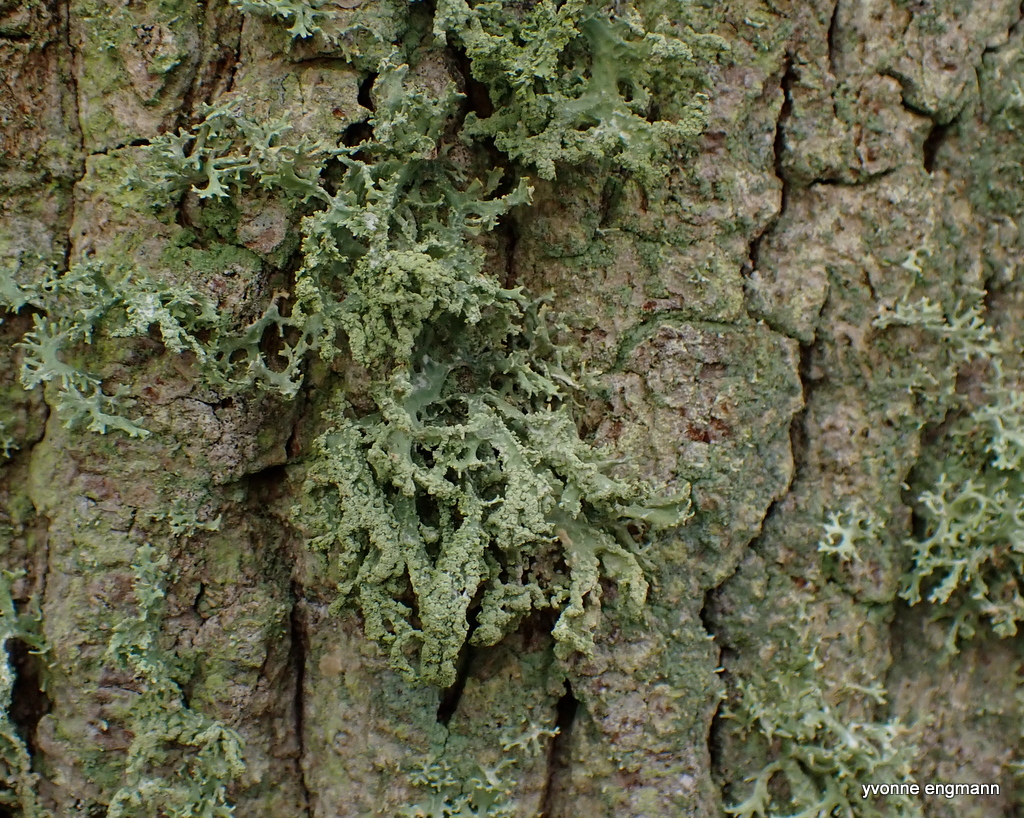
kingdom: Fungi
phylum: Ascomycota
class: Lecanoromycetes
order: Lecanorales
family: Parmeliaceae
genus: Evernia
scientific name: Evernia prunastri
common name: almindelig slåenlav
